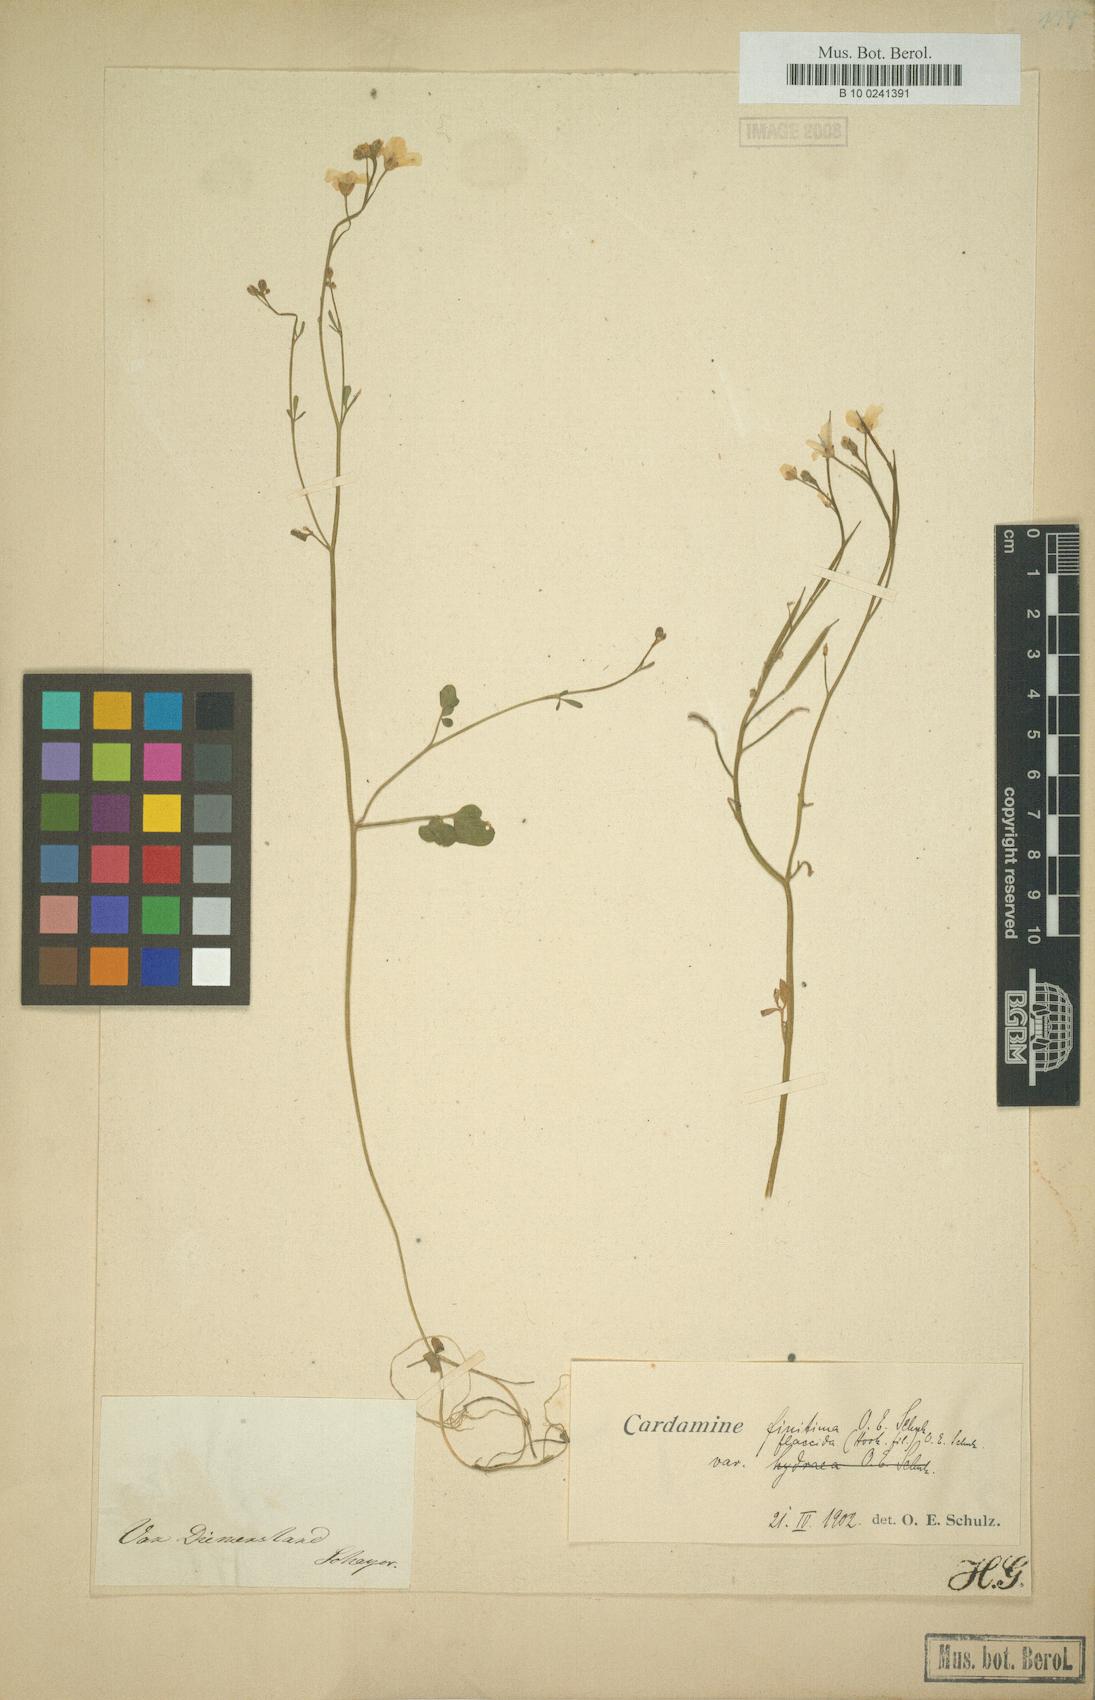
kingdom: Plantae
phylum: Tracheophyta
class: Magnoliopsida
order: Brassicales
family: Brassicaceae
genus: Cardamine
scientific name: Cardamine tenuifolia
